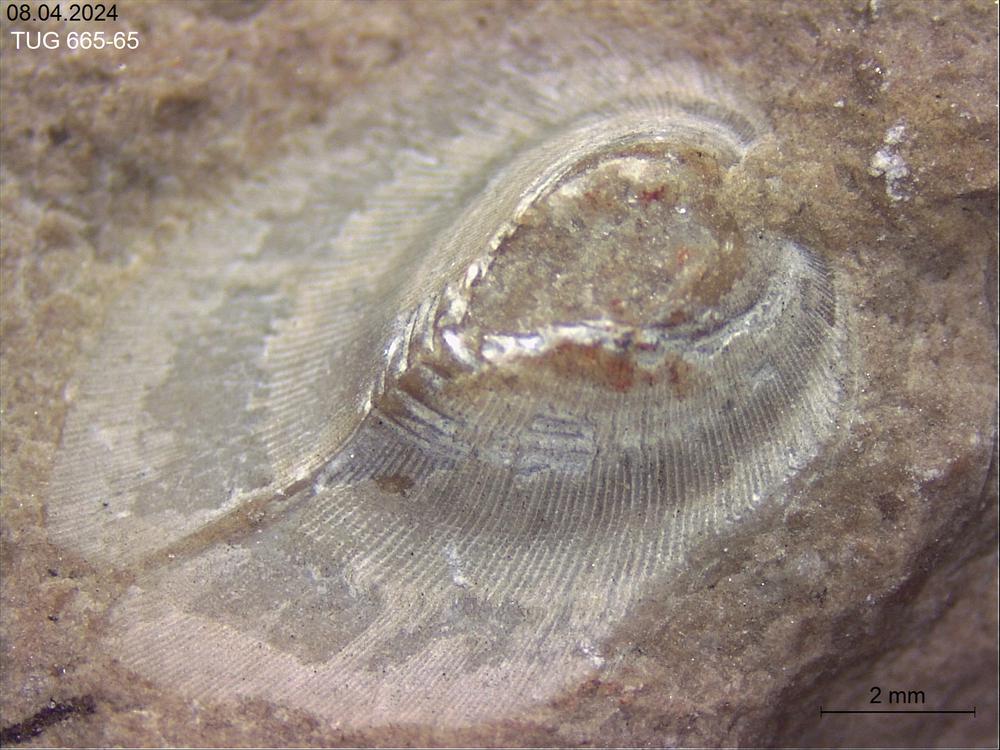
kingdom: Animalia
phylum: Mollusca
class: Rostroconchia
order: Conocardiida
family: Hippocardiidae
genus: Hippocardia
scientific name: Hippocardia
